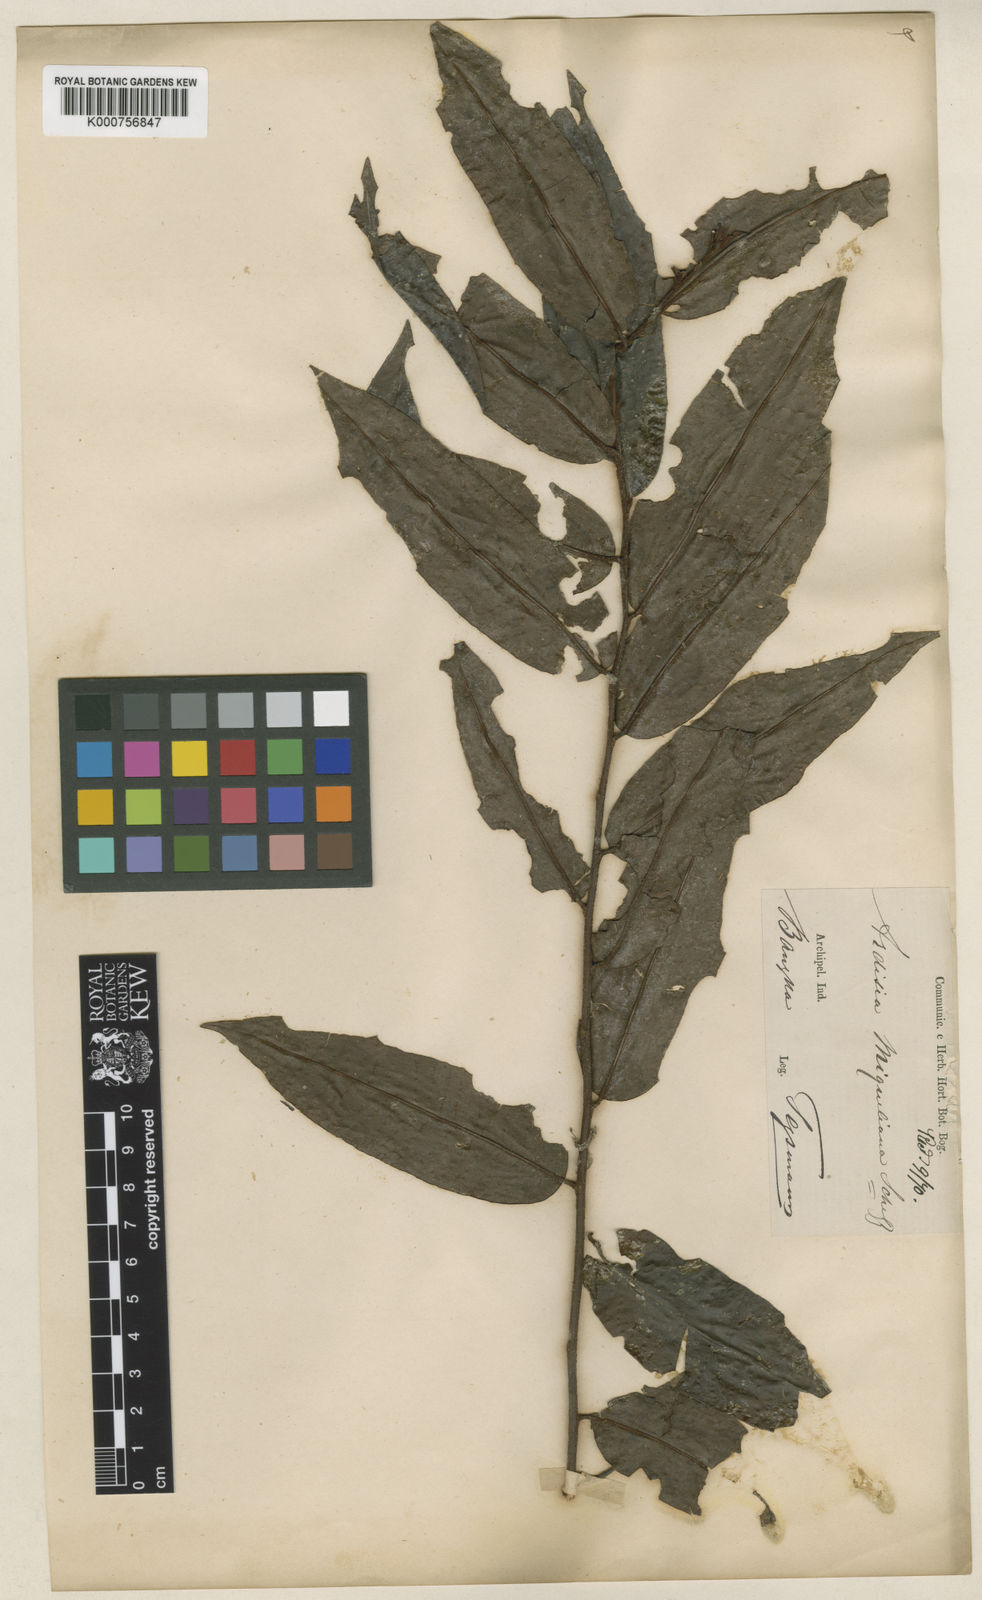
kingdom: Plantae
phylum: Tracheophyta
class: Magnoliopsida
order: Ericales
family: Primulaceae
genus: Ardisia
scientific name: Ardisia miqueliana
